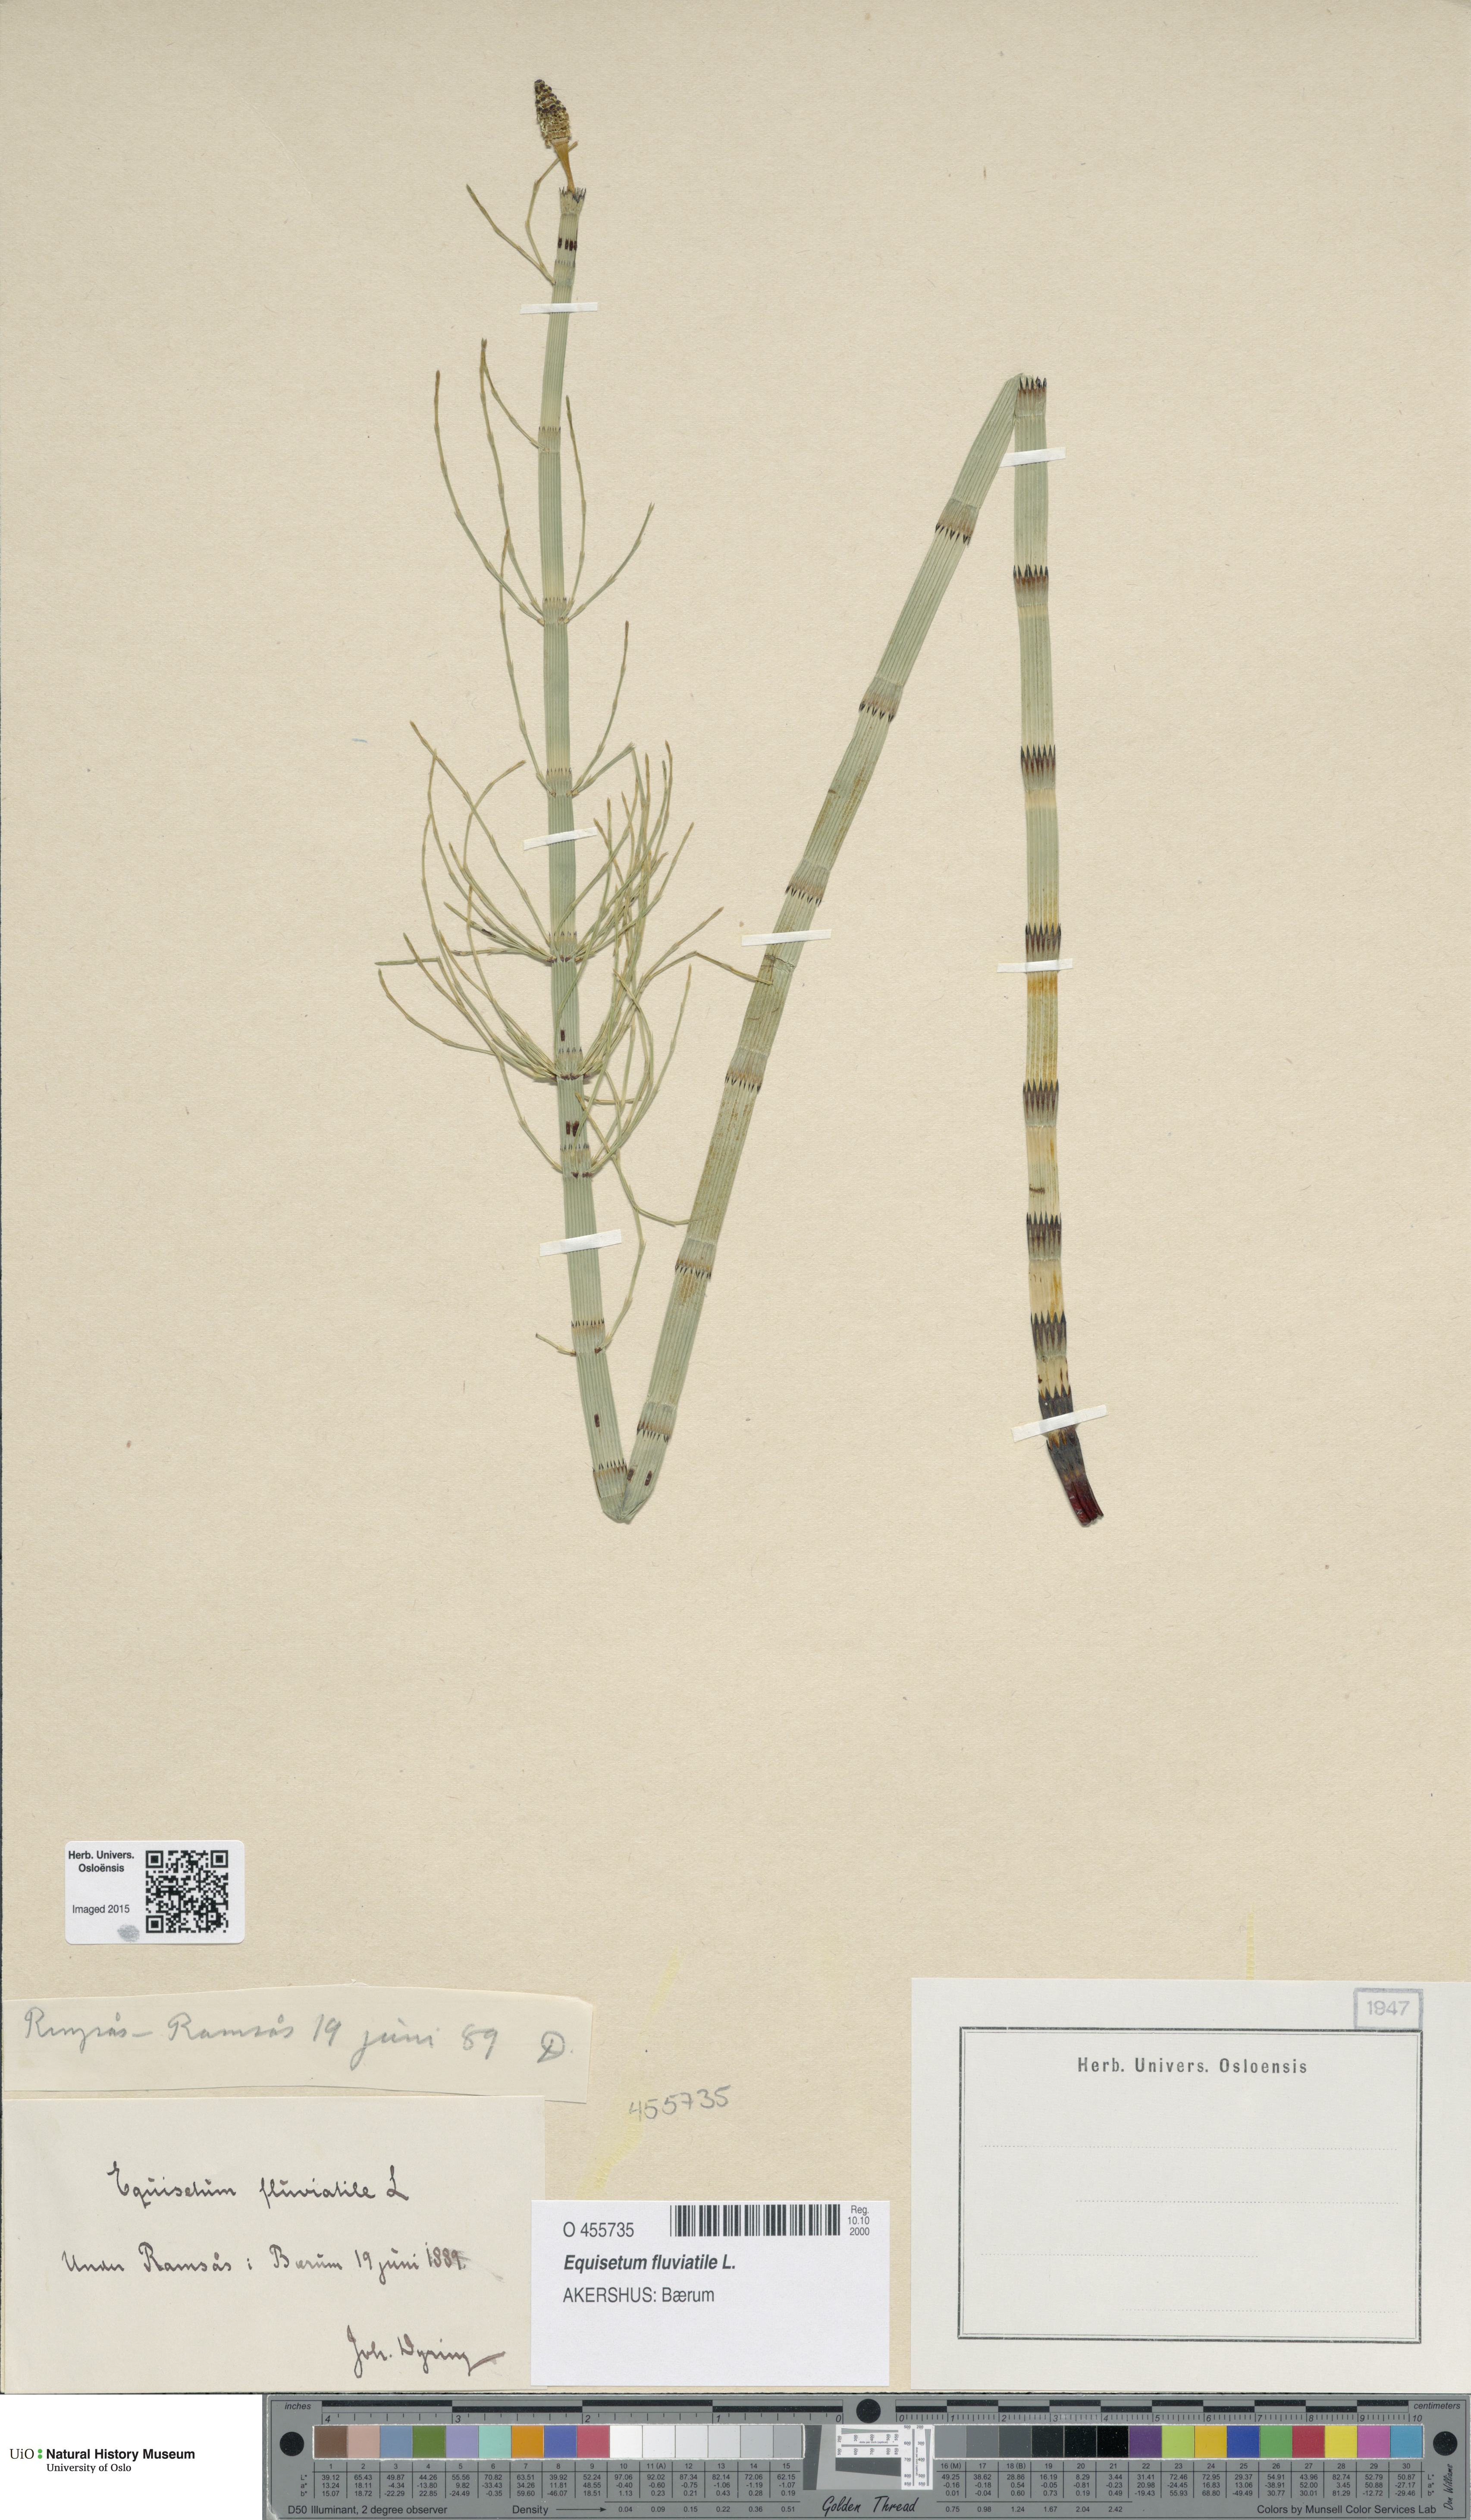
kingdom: Plantae
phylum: Tracheophyta
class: Polypodiopsida
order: Equisetales
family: Equisetaceae
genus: Equisetum
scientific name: Equisetum fluviatile
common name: Water horsetail
